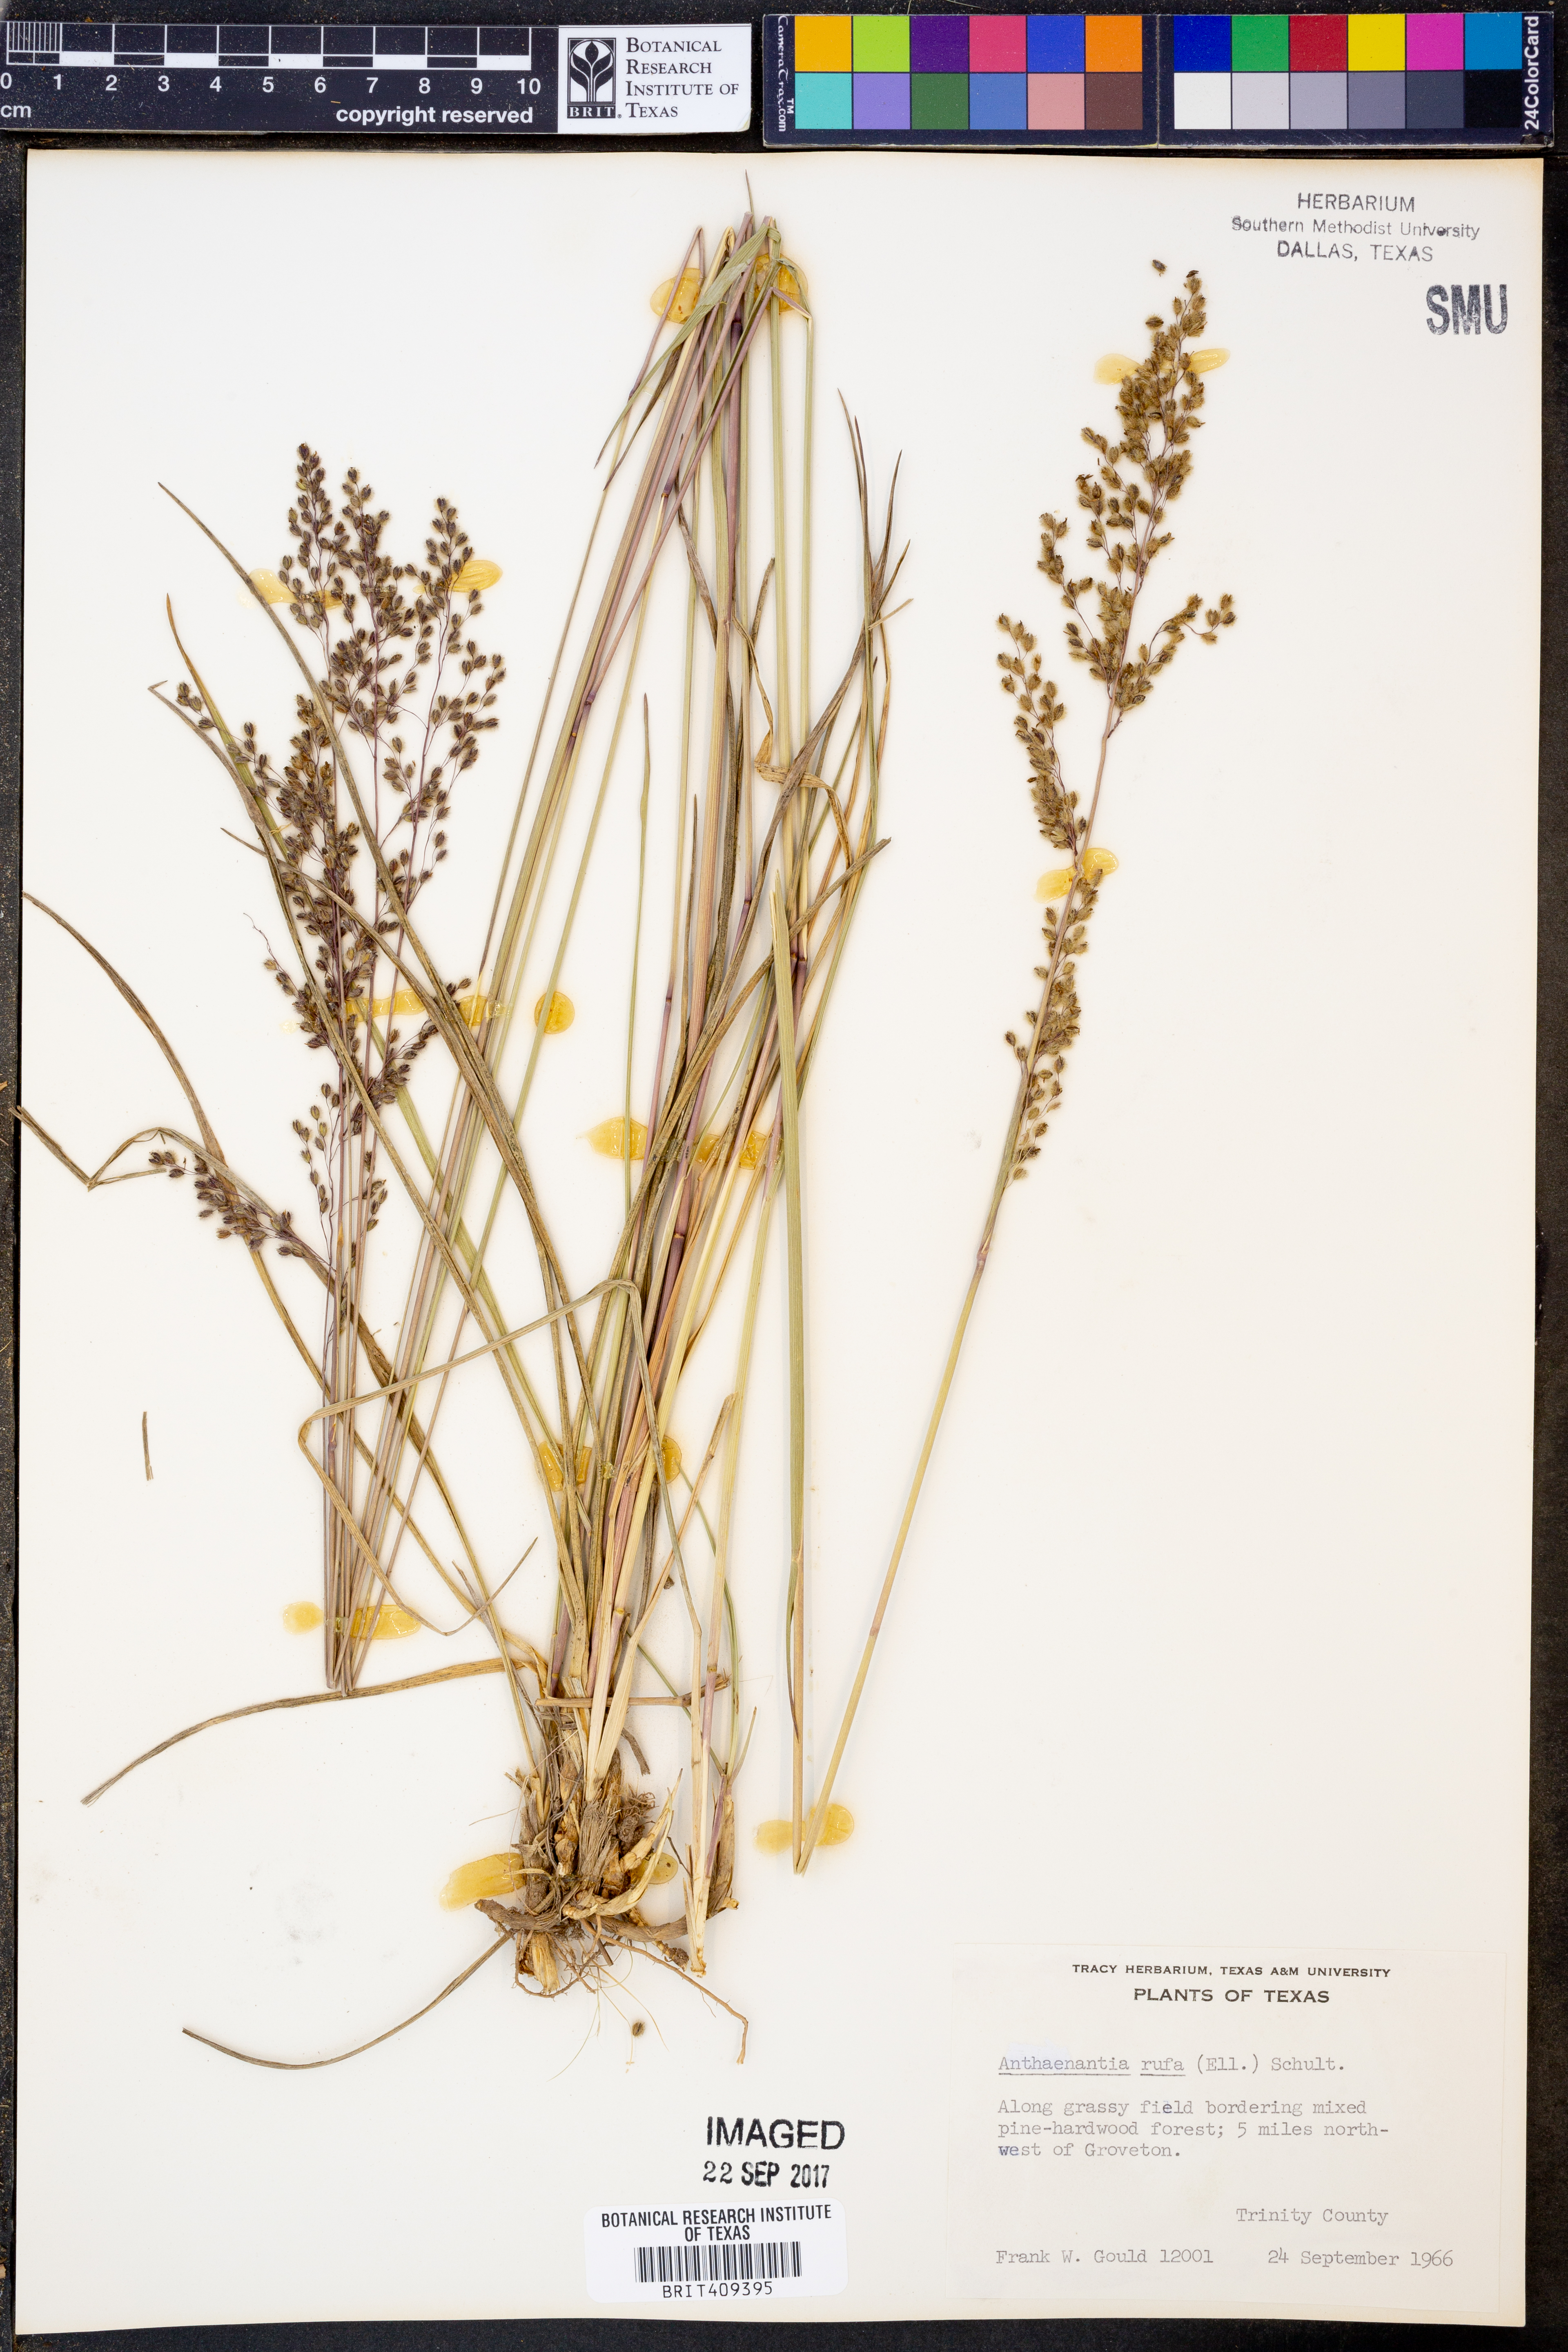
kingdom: Plantae
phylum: Tracheophyta
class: Liliopsida
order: Poales
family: Poaceae
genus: Anthenantia
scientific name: Anthenantia rufa
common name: Purple silkyscale
